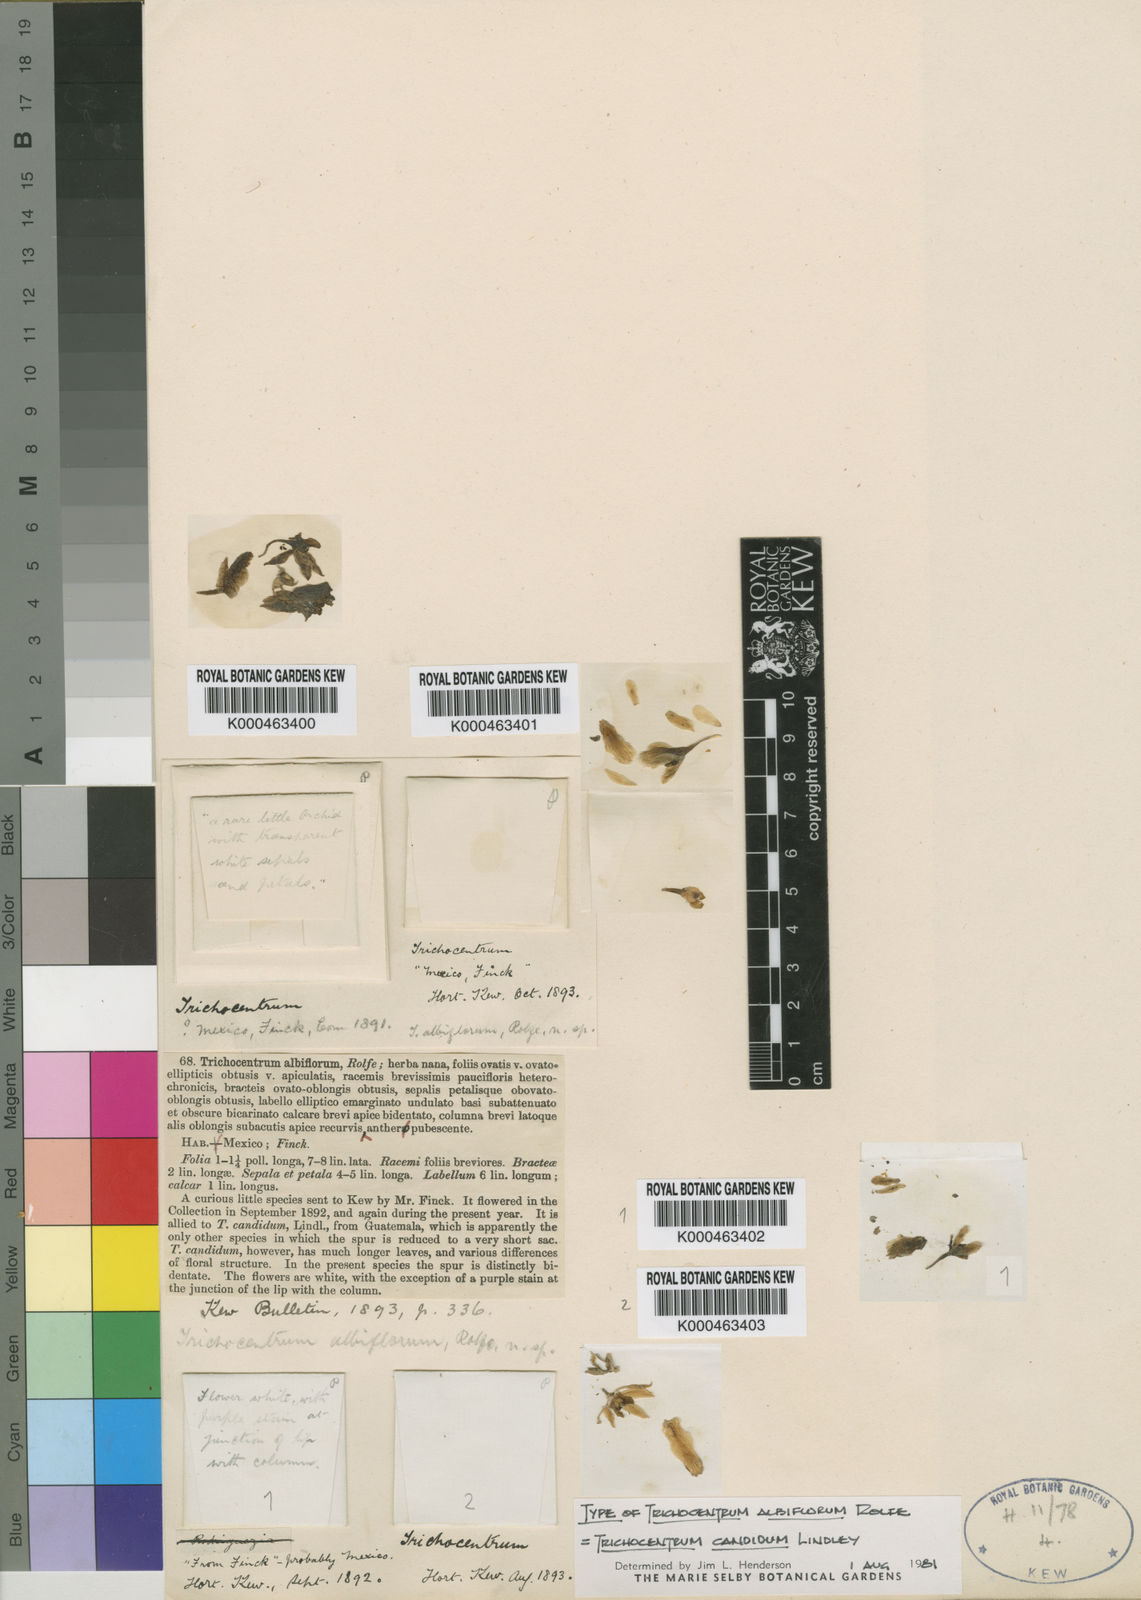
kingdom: Plantae
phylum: Tracheophyta
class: Liliopsida
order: Asparagales
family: Orchidaceae
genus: Trichocentrum
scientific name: Trichocentrum candidum
